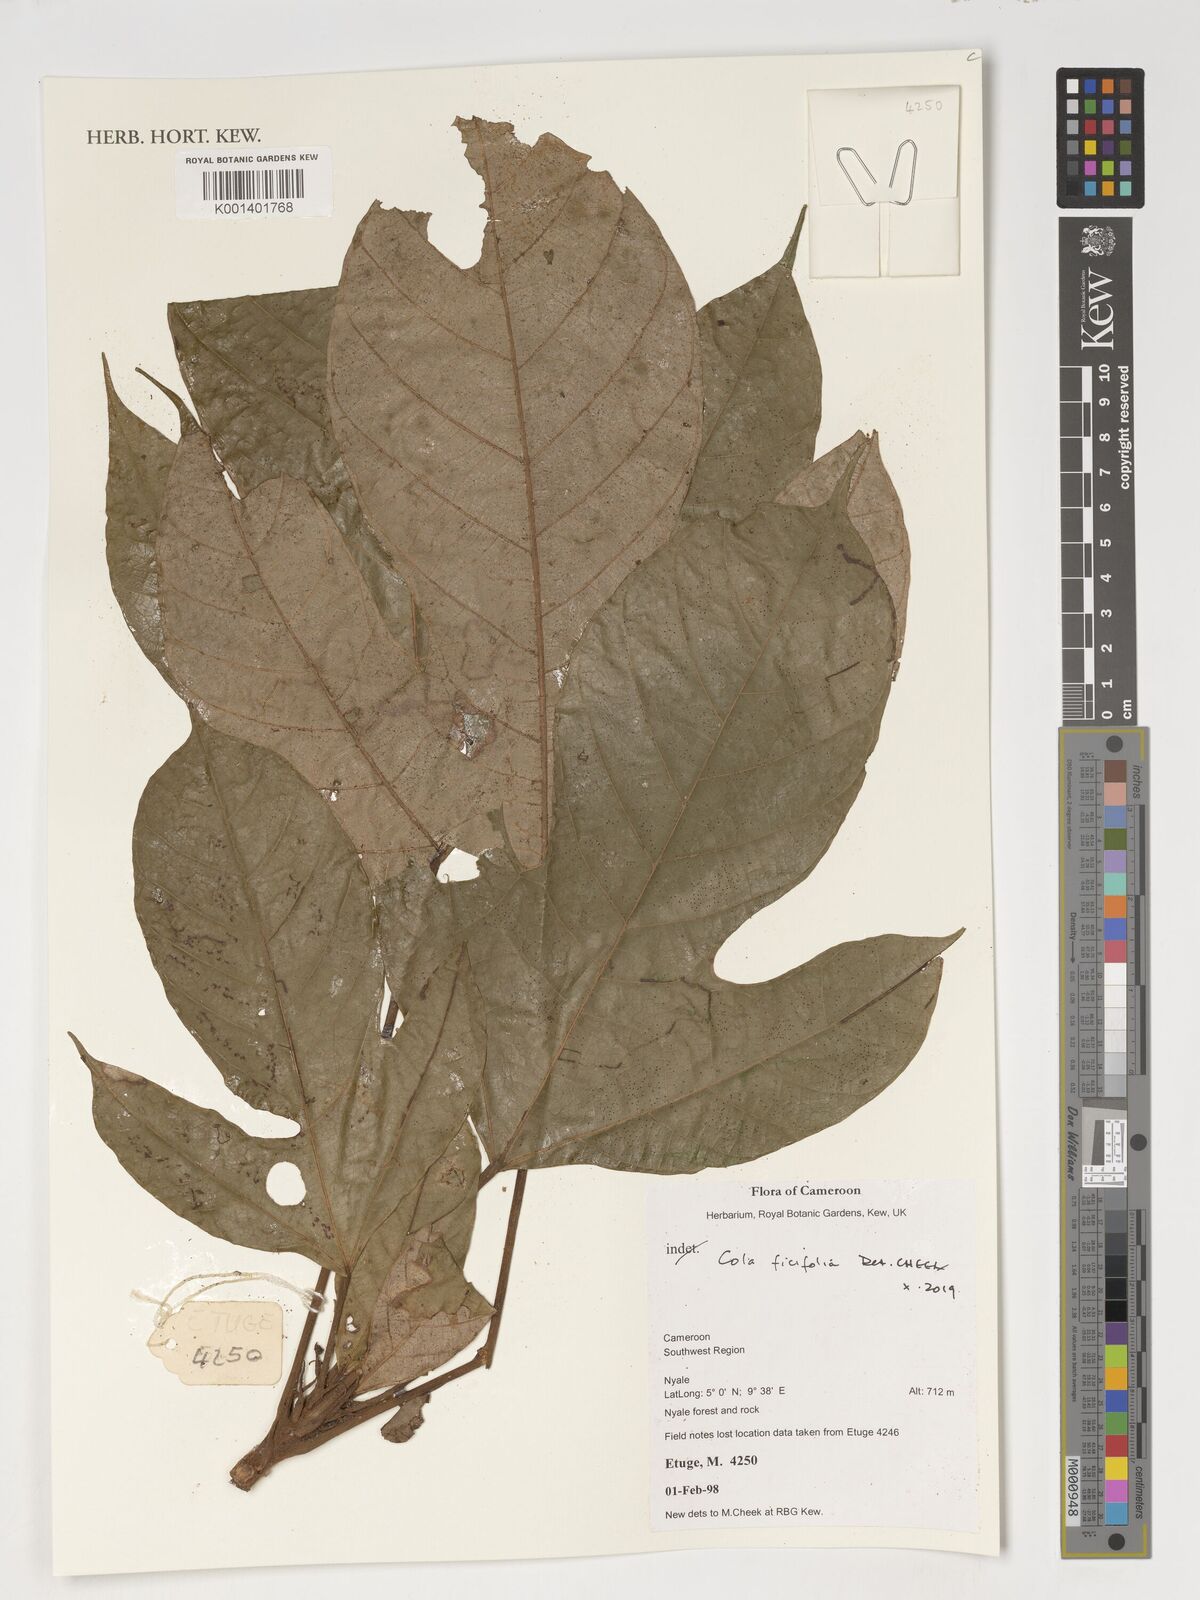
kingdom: Plantae
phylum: Tracheophyta
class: Magnoliopsida
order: Malvales
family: Malvaceae
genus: Cola
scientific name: Cola ficifolia
